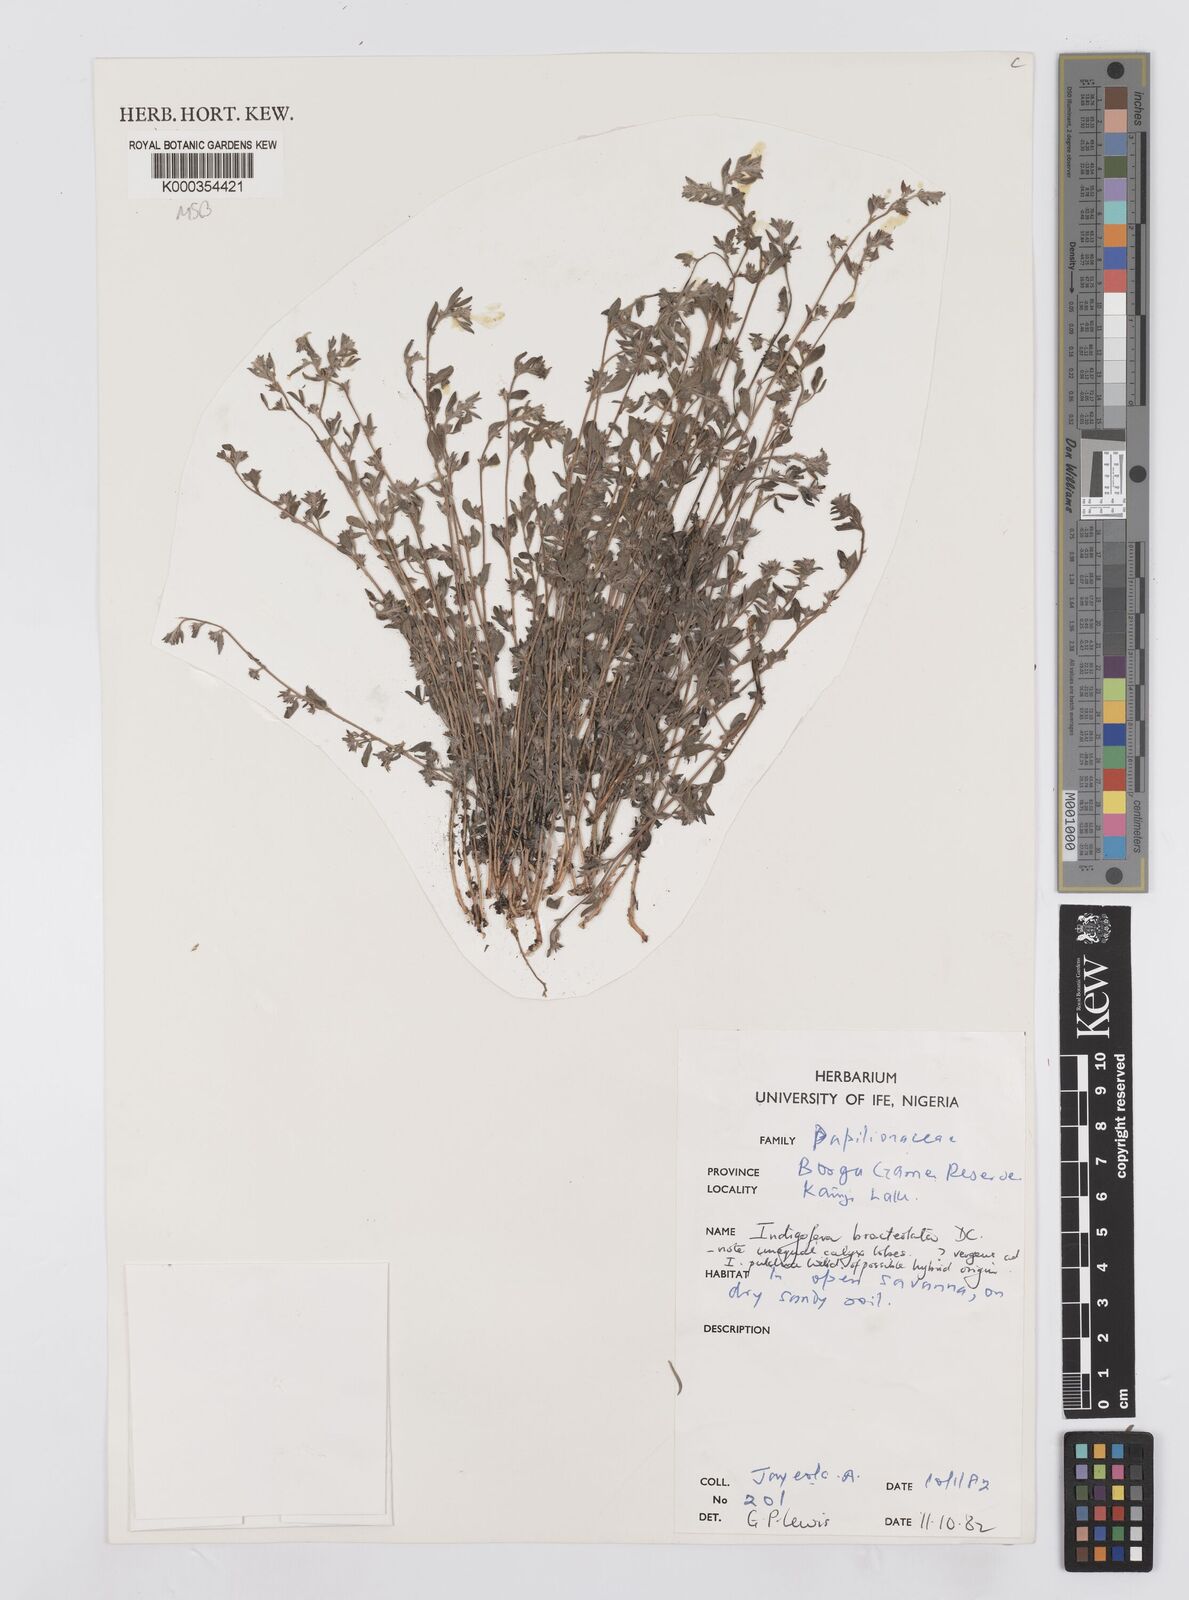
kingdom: Plantae
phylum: Tracheophyta
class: Magnoliopsida
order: Fabales
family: Fabaceae
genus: Indigofera
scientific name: Indigofera bracteolata
